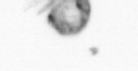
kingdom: Animalia
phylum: Arthropoda
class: Copepoda
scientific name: Copepoda
